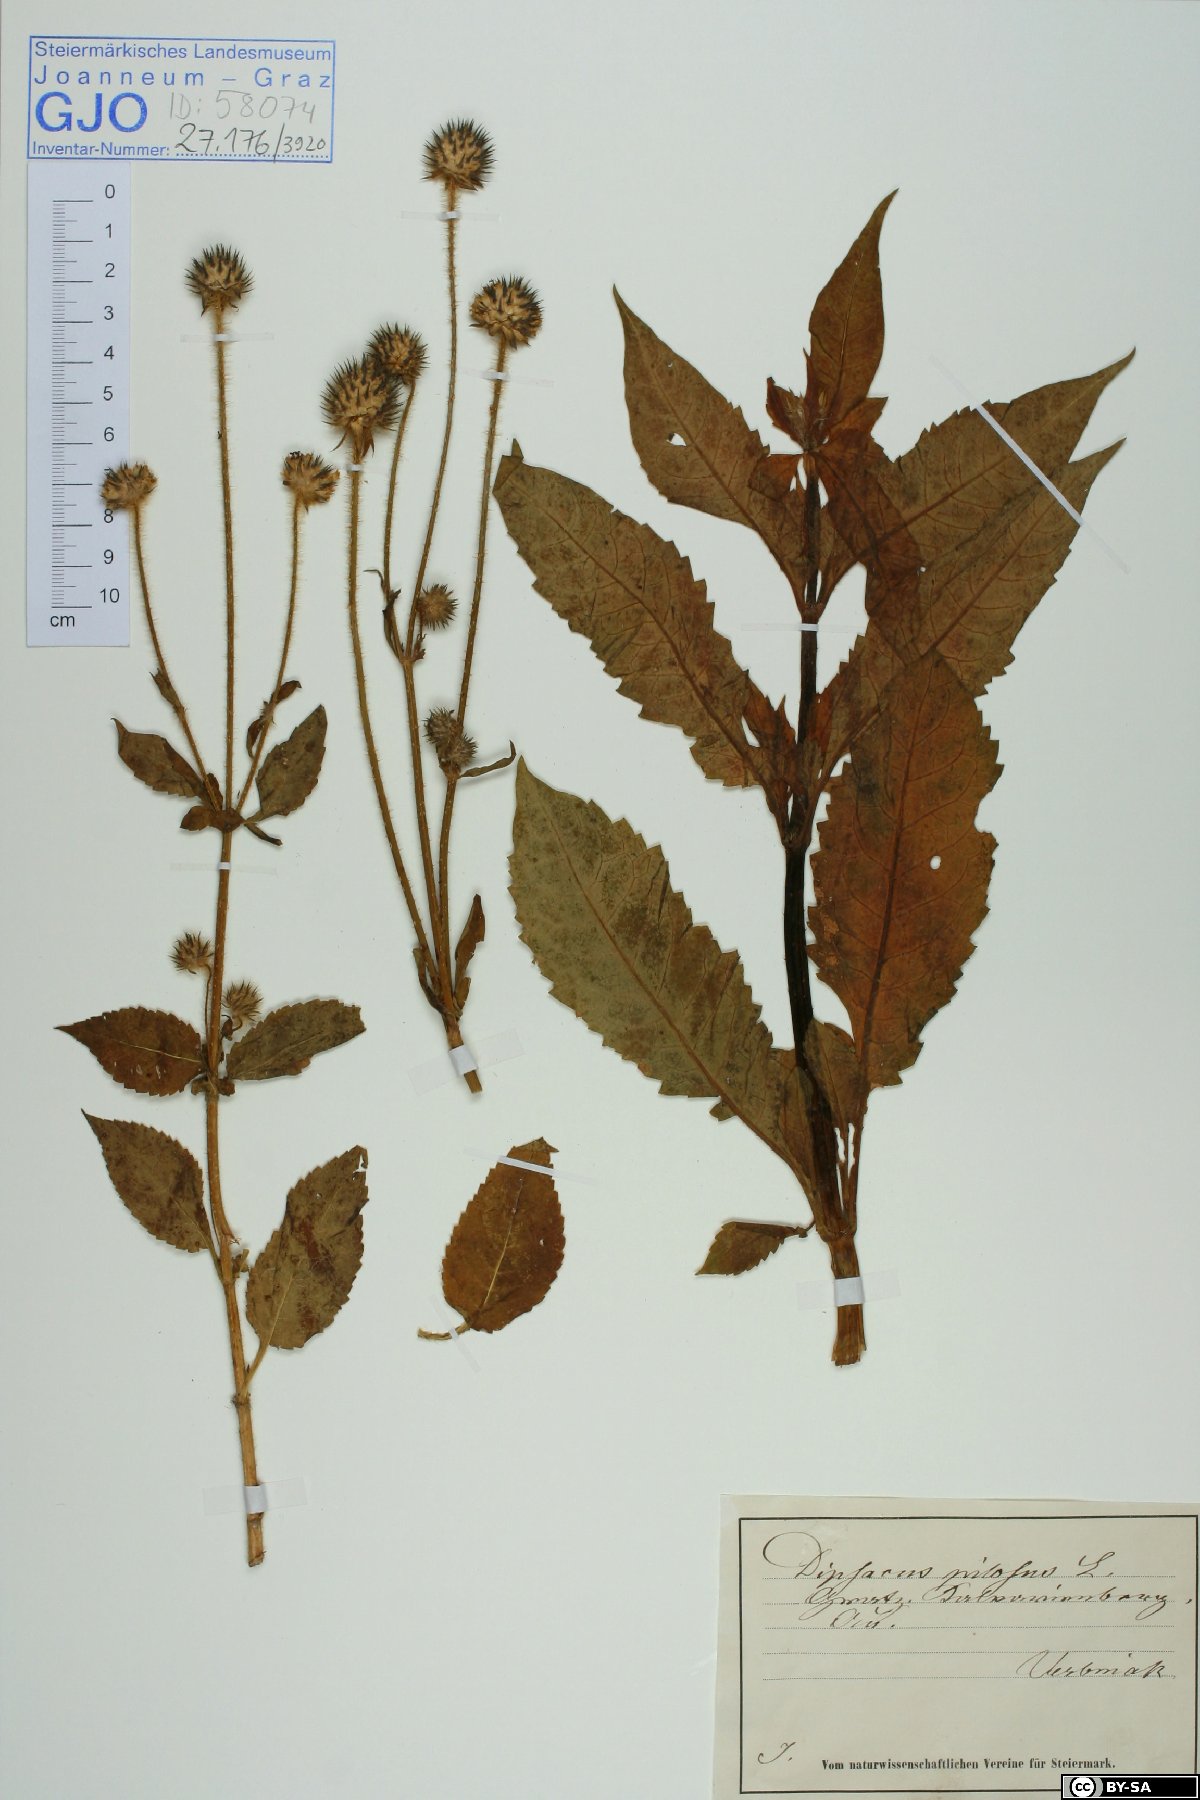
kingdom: Plantae
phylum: Tracheophyta
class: Magnoliopsida
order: Dipsacales
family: Caprifoliaceae
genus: Dipsacus
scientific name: Dipsacus pilosus
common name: Small teasel
